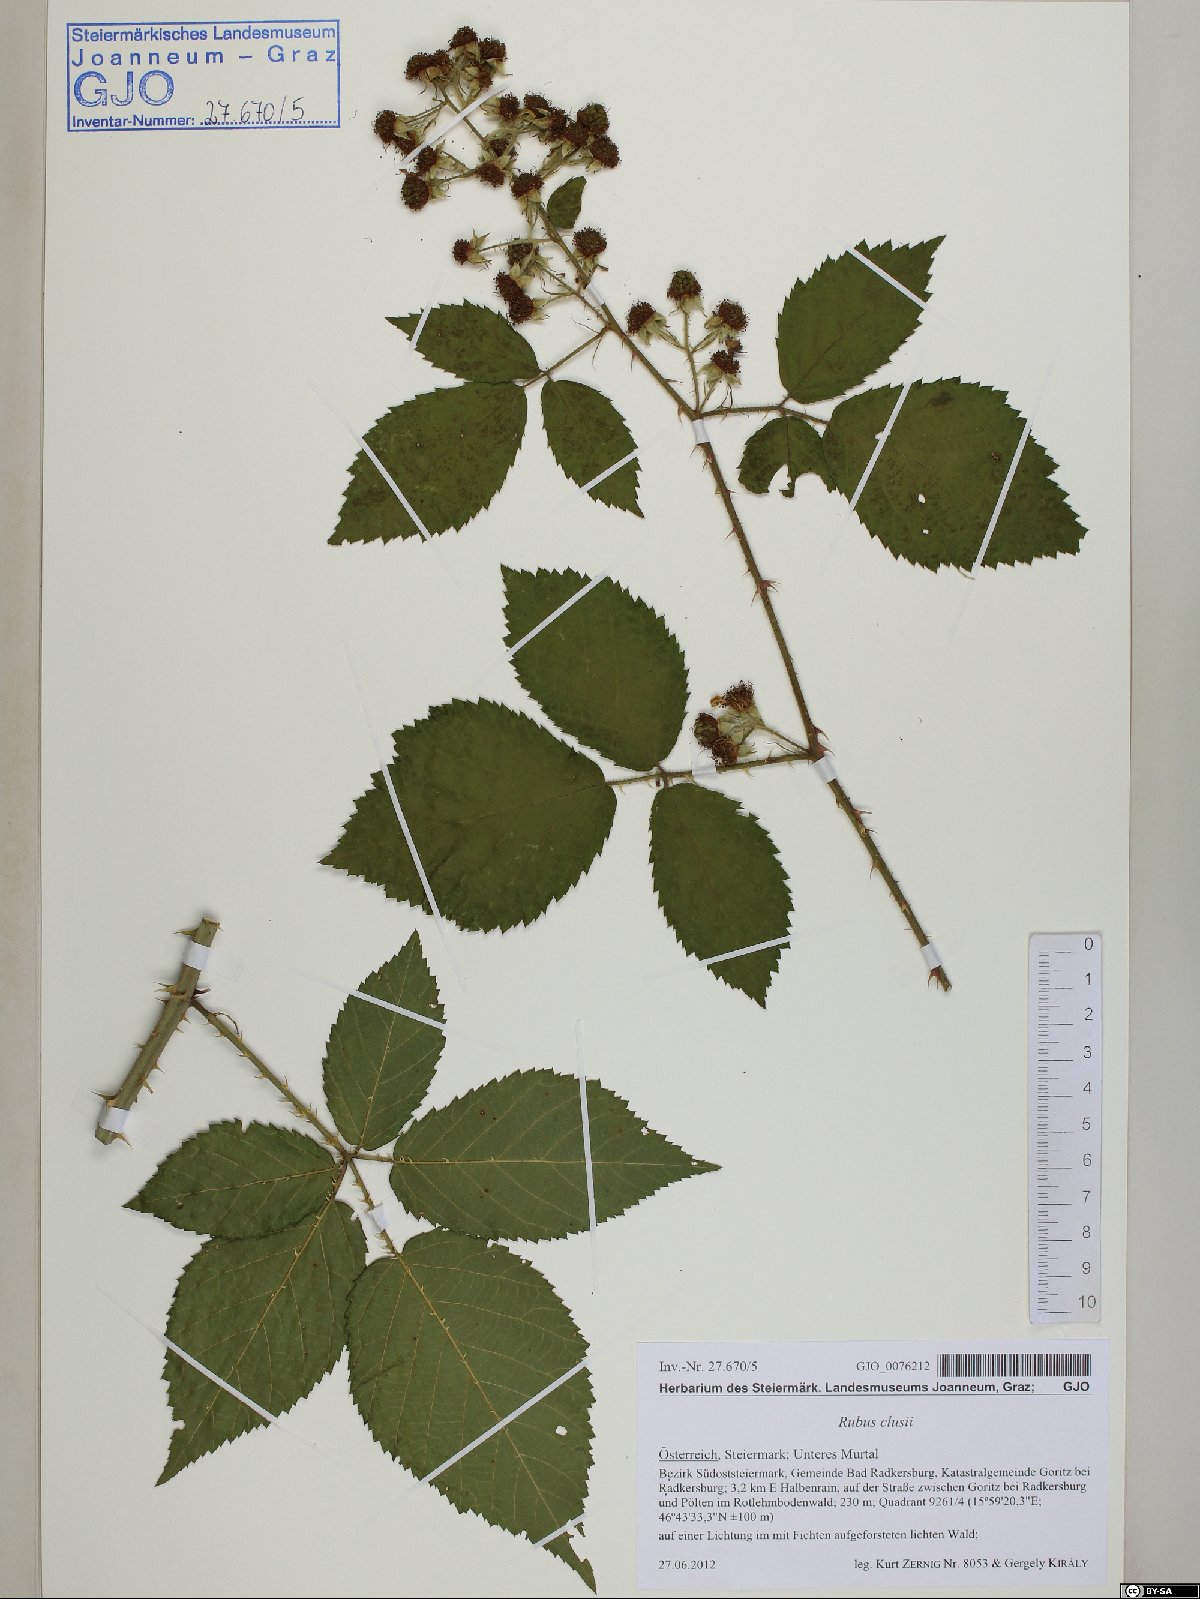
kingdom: Plantae
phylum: Tracheophyta
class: Magnoliopsida
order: Rosales
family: Rosaceae
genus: Rubus
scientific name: Rubus clusii
